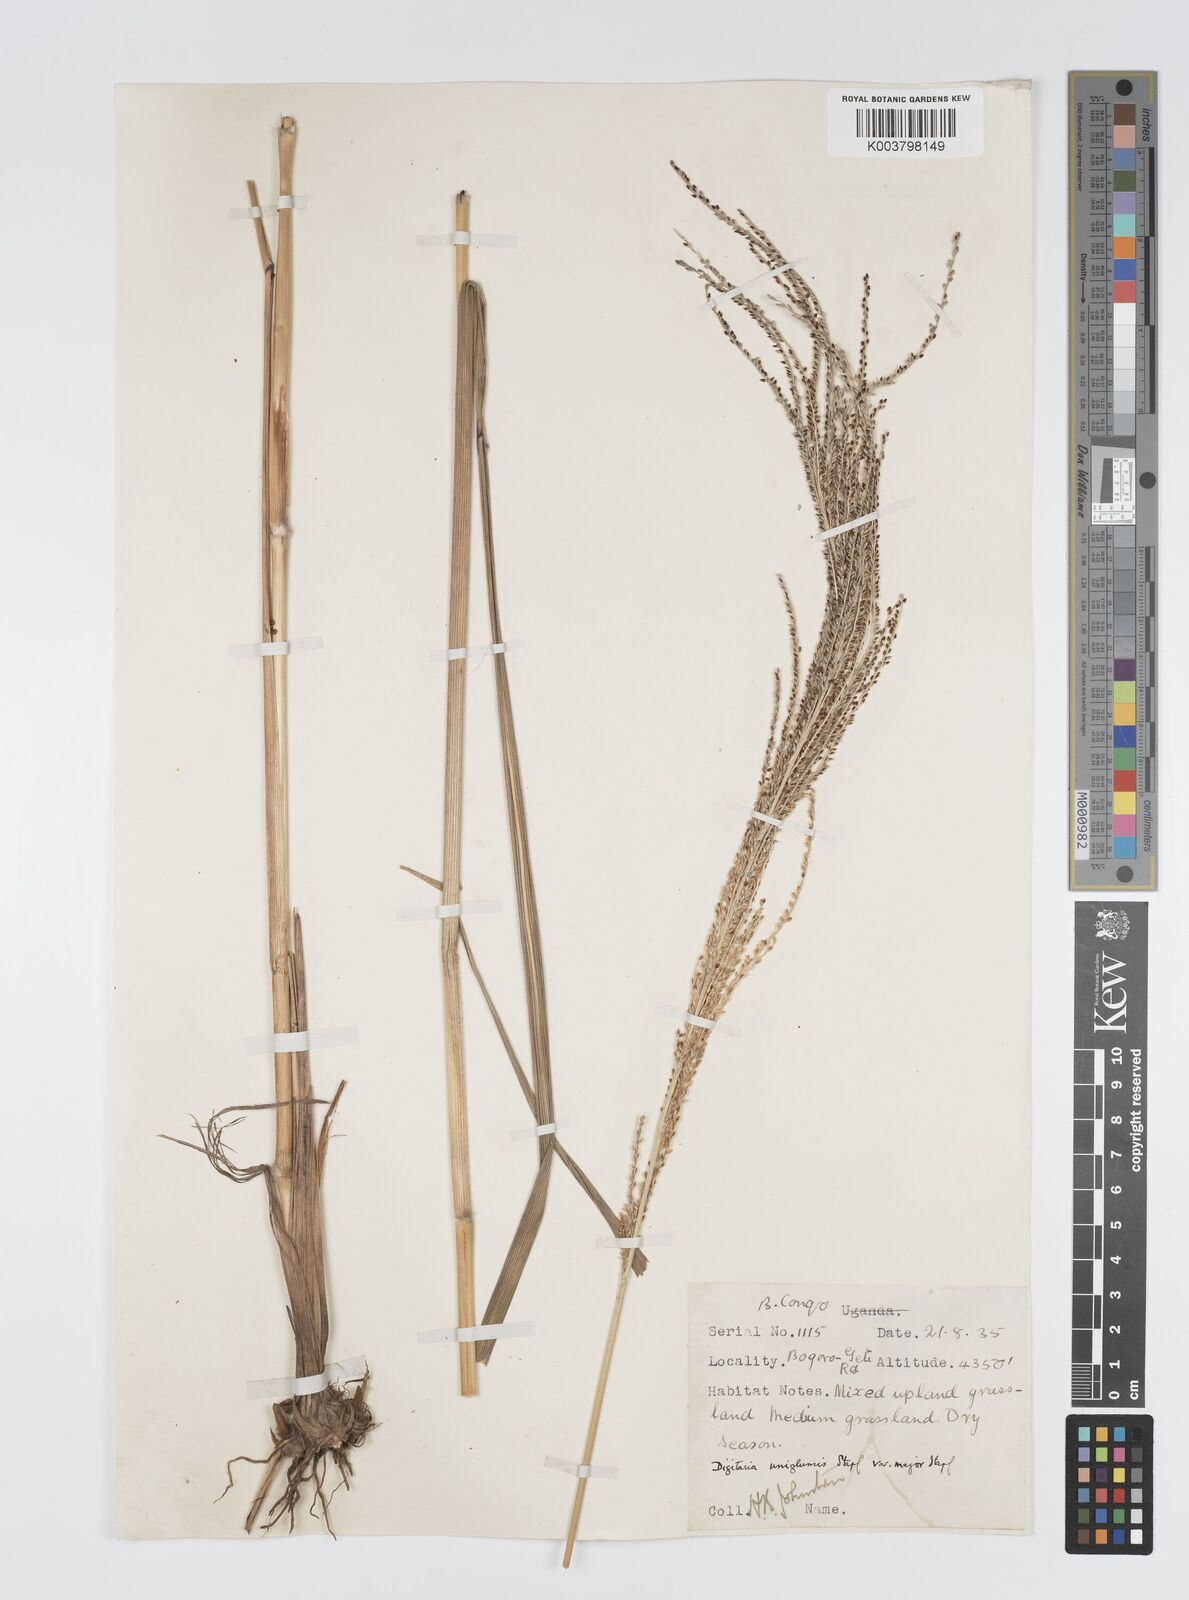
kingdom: Plantae
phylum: Tracheophyta
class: Liliopsida
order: Poales
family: Poaceae
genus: Digitaria
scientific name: Digitaria diagonalis
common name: Brown-seed finger grass
